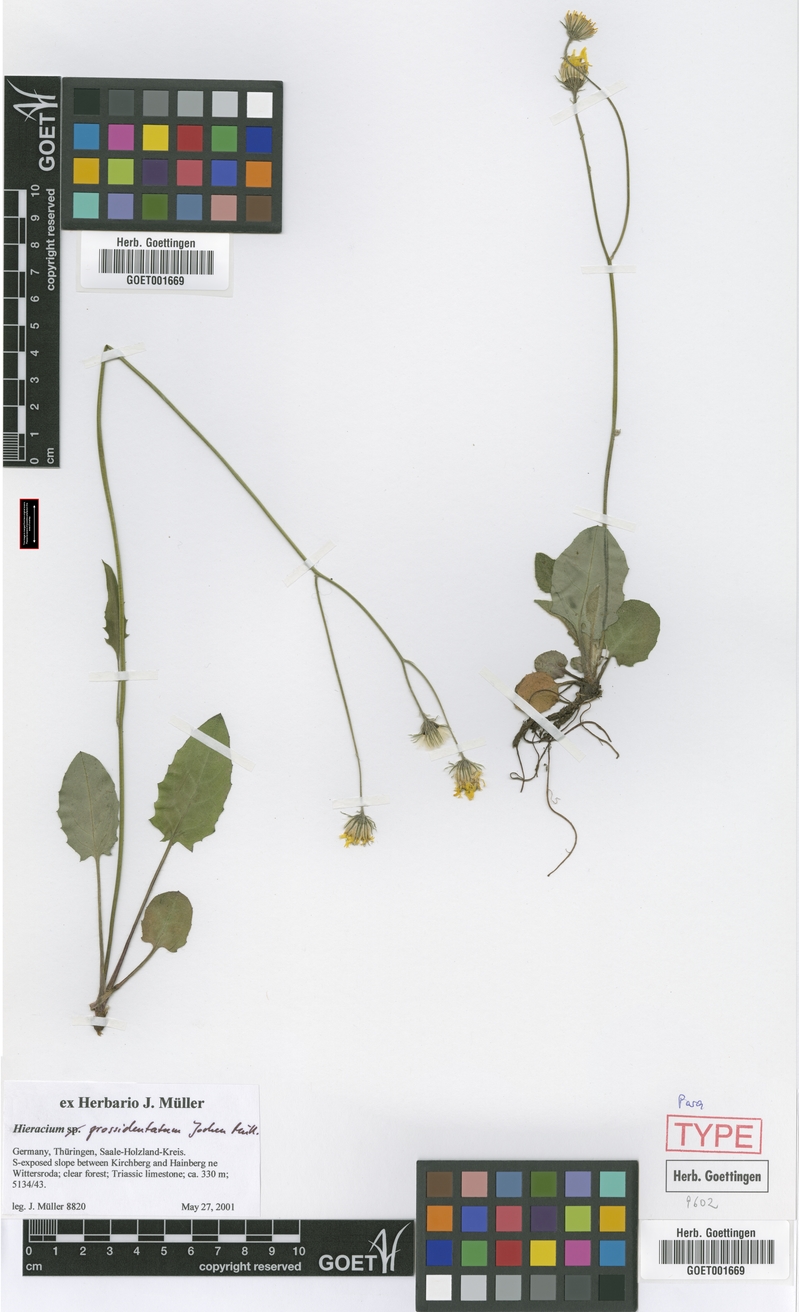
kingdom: Plantae
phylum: Tracheophyta
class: Magnoliopsida
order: Asterales
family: Asteraceae
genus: Hieracium
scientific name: Hieracium hypochoeroides
